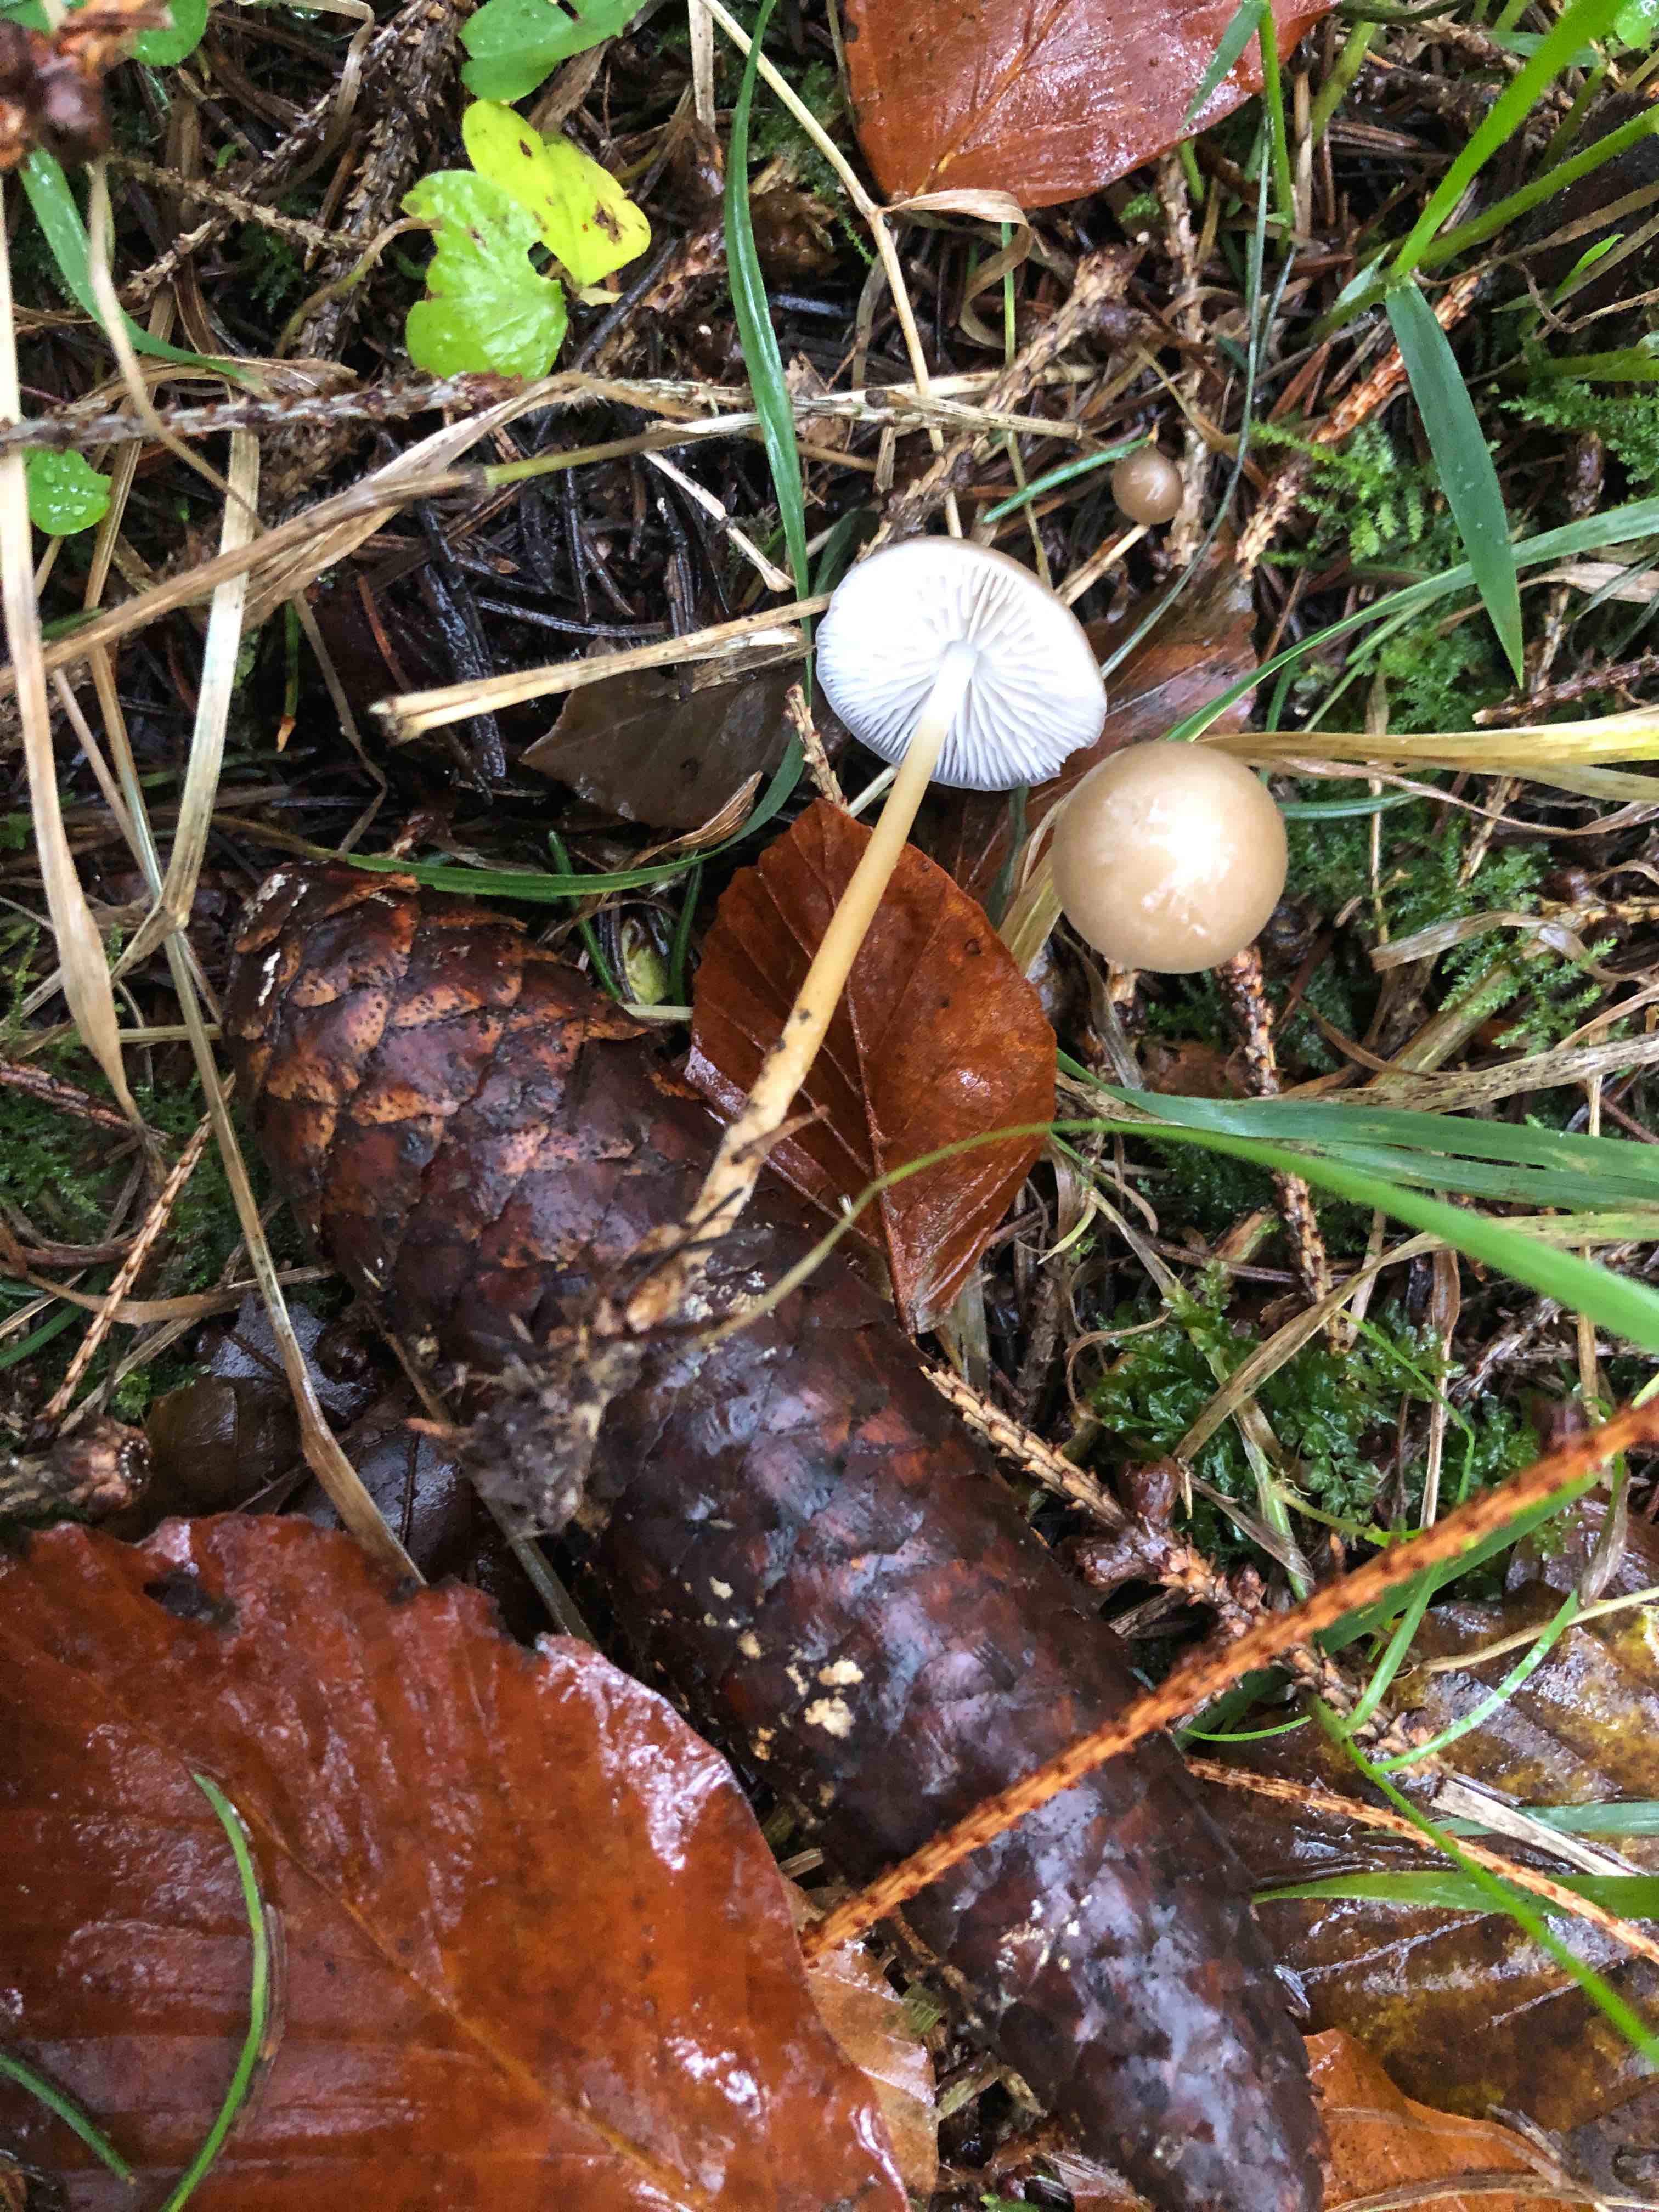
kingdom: Fungi
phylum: Basidiomycota
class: Agaricomycetes
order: Agaricales
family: Physalacriaceae
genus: Strobilurus
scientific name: Strobilurus esculentus
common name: gran-koglehat
